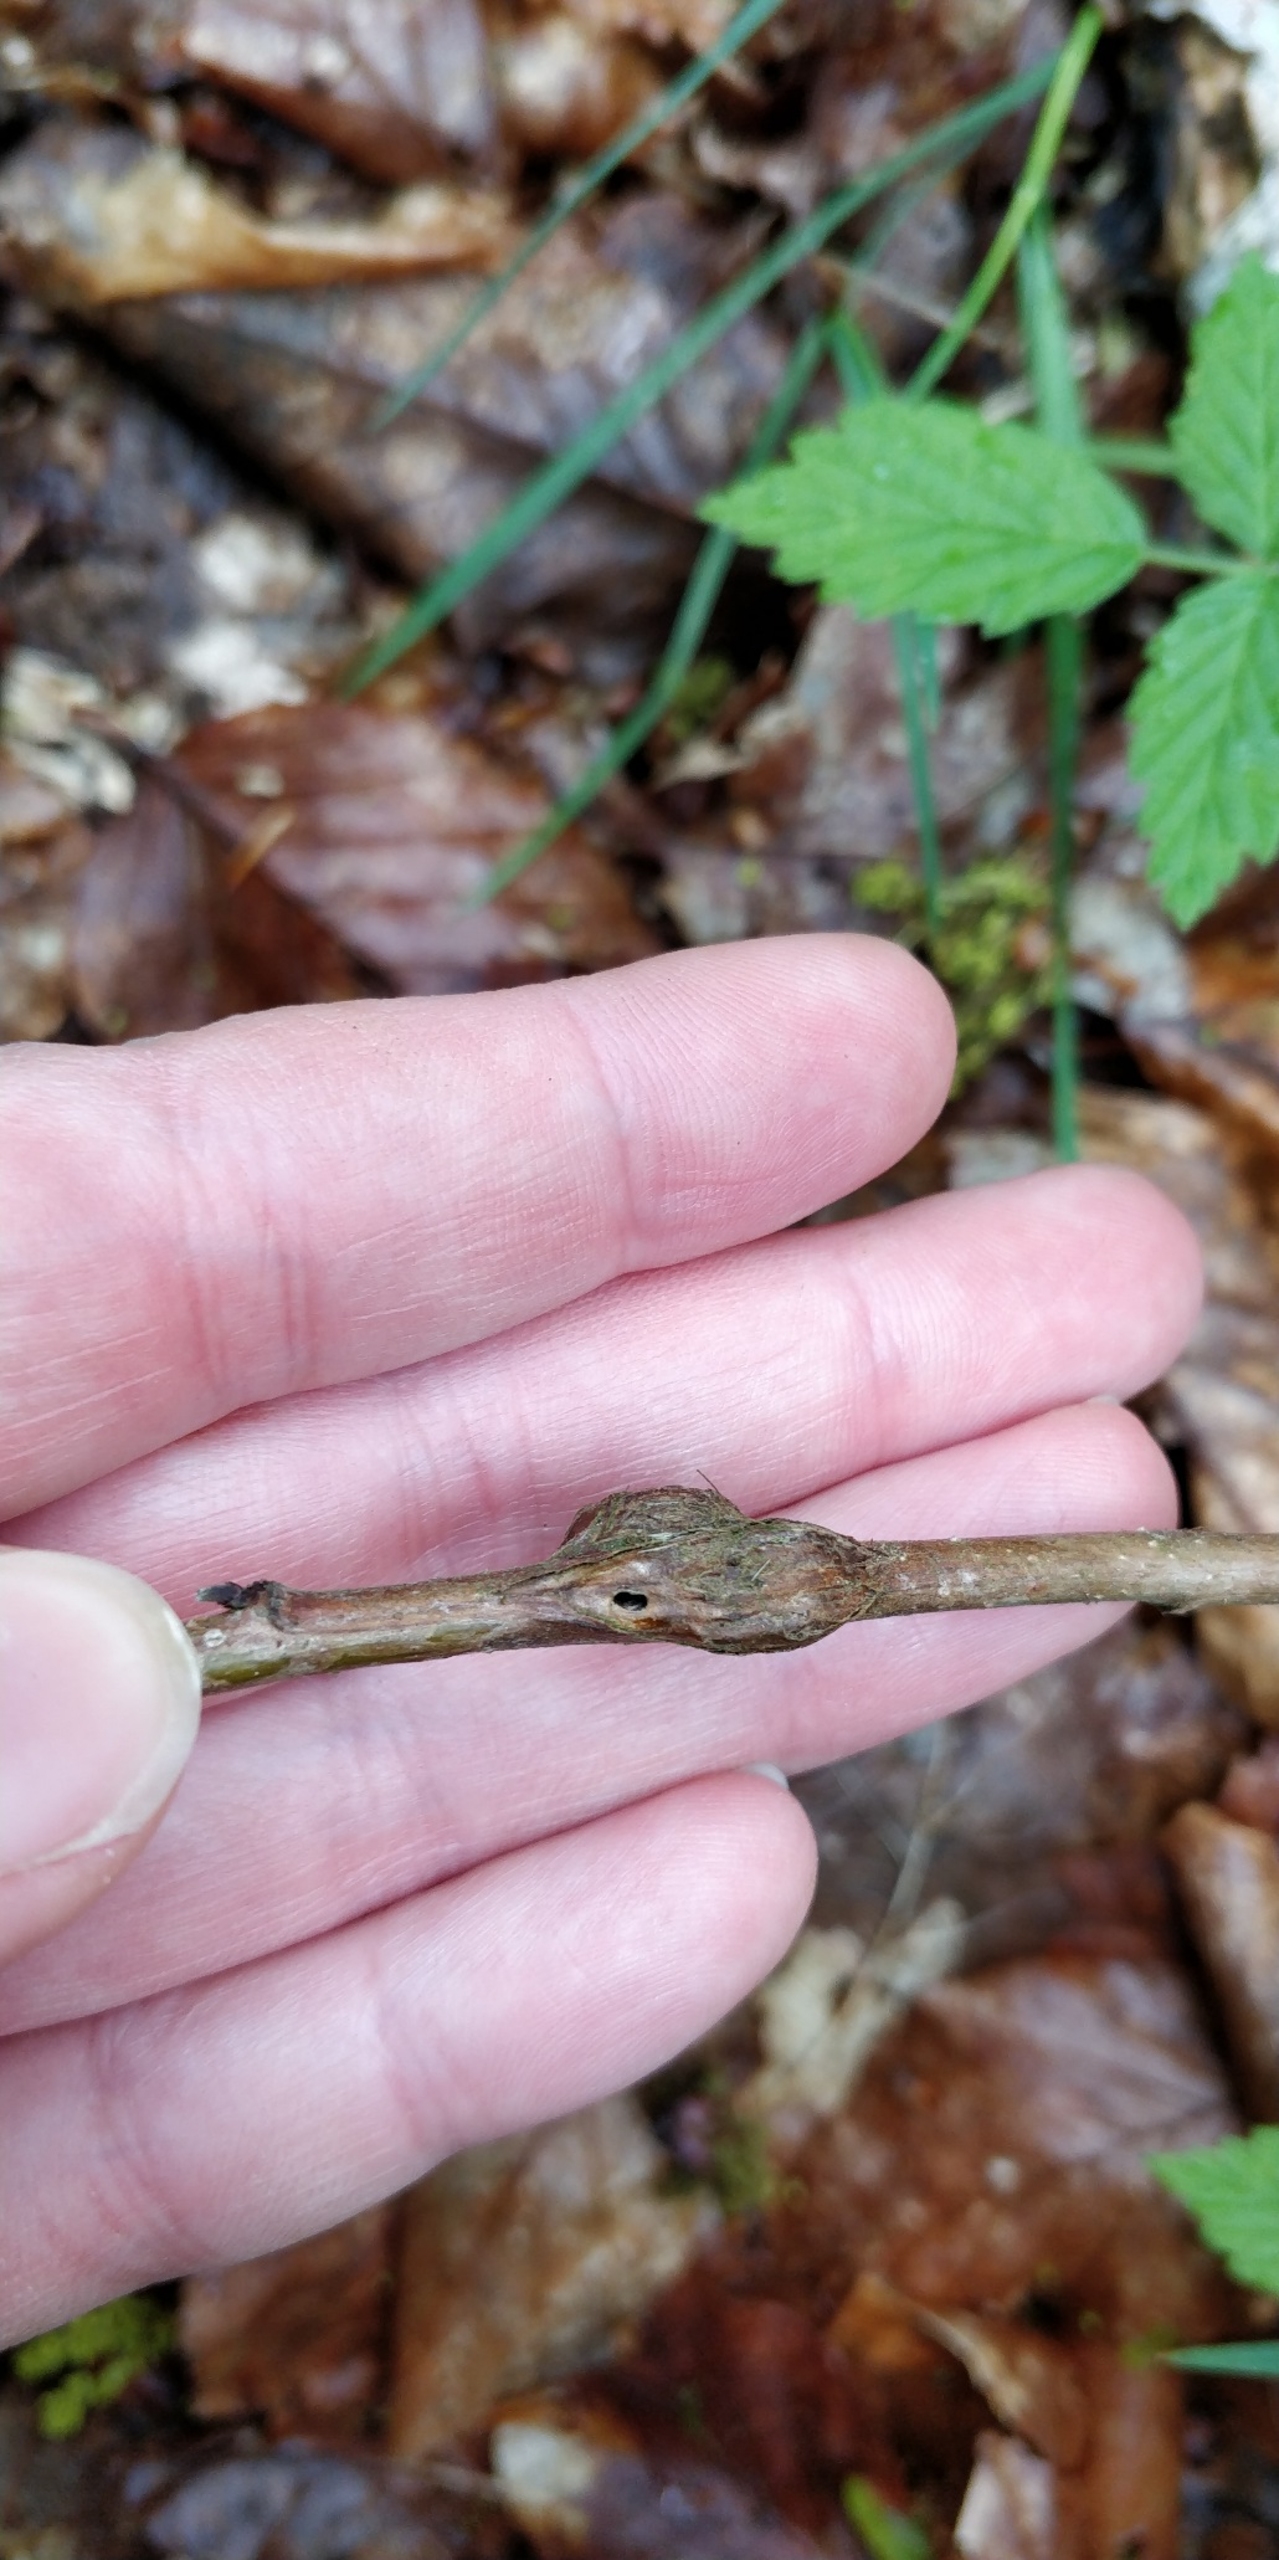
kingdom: Animalia
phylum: Arthropoda
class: Insecta
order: Diptera
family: Cecidomyiidae
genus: Lasioptera
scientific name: Lasioptera rubi
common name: Hindbærstængelgalmyg
